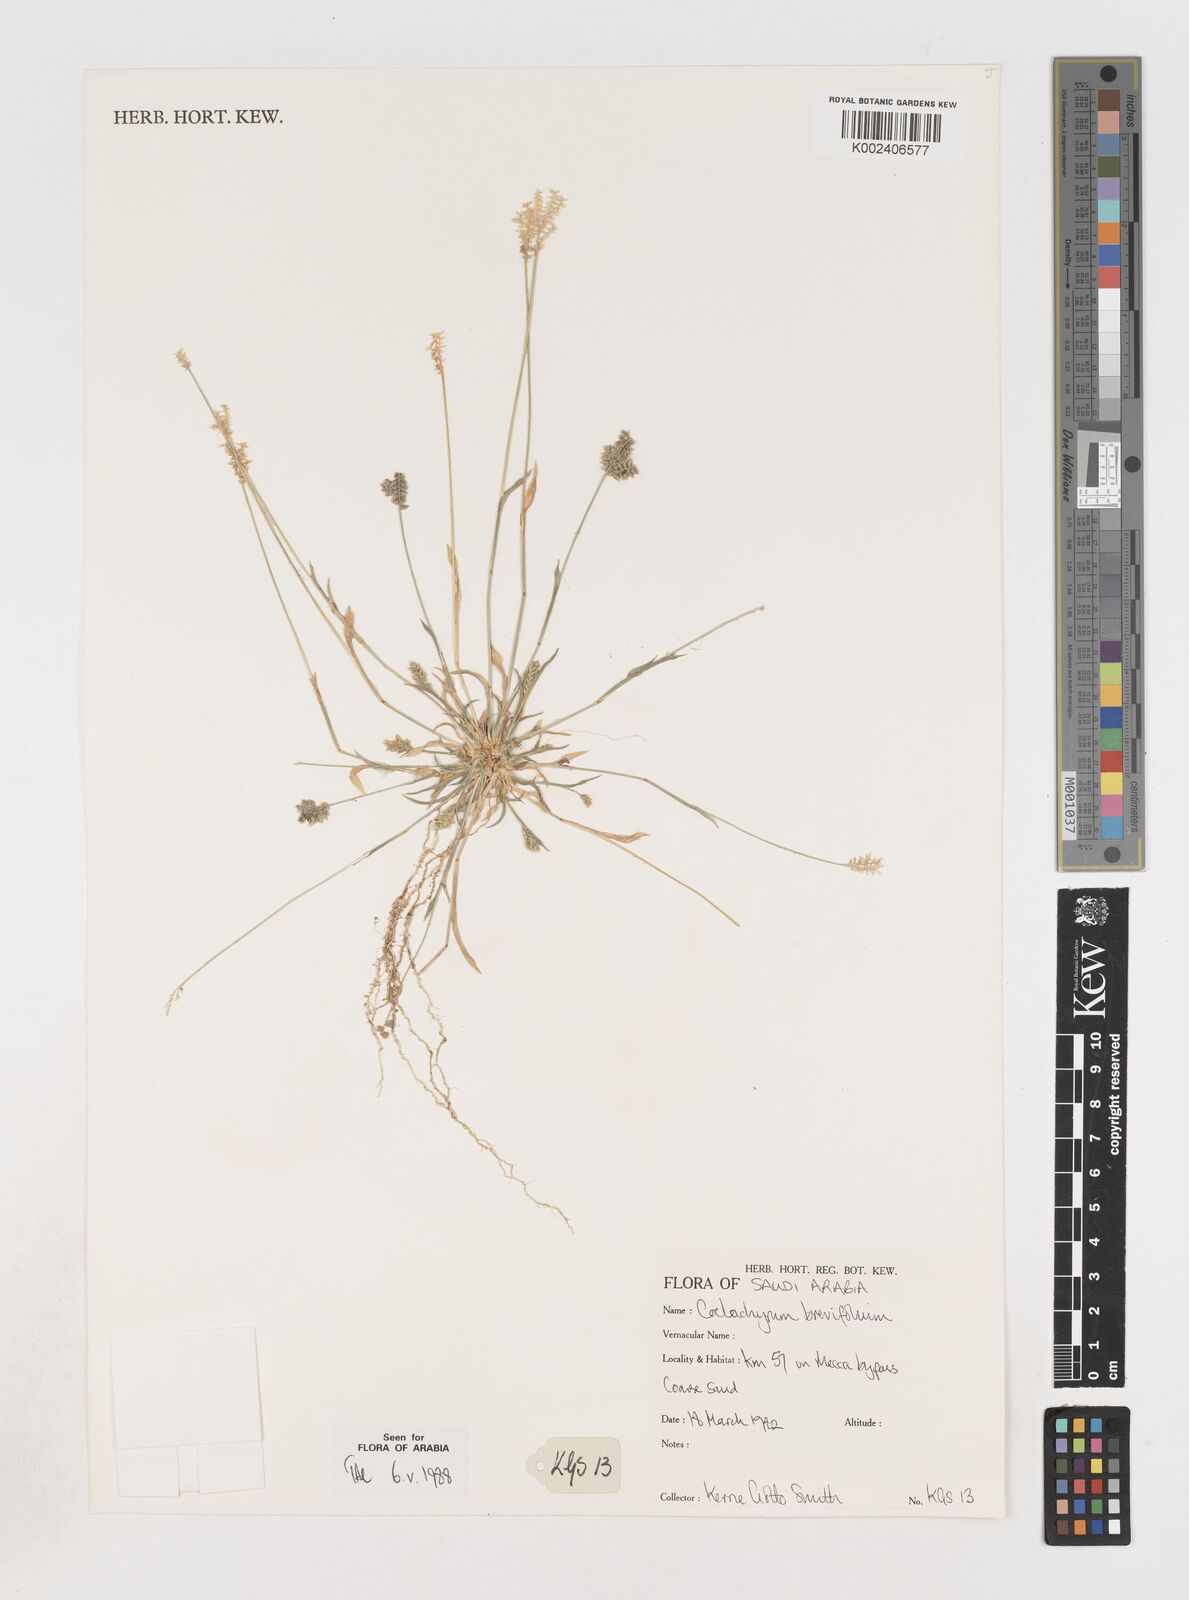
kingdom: Plantae
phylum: Tracheophyta
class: Liliopsida
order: Poales
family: Poaceae
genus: Coelachyrum
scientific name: Coelachyrum brevifolium
